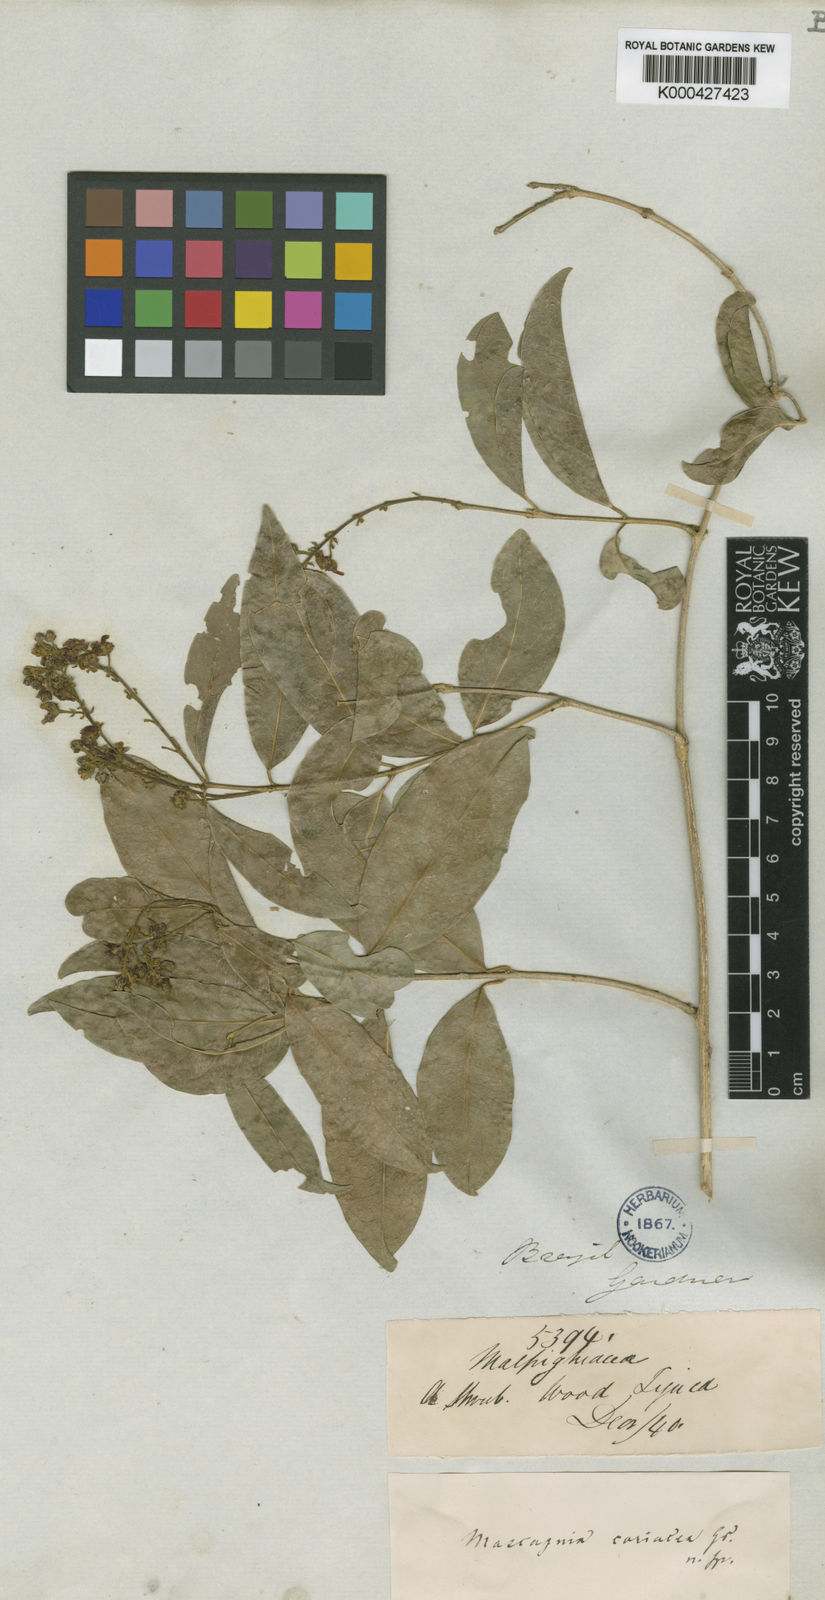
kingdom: Plantae
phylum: Tracheophyta
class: Magnoliopsida
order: Malpighiales
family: Malpighiaceae
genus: Amorimia
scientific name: Amorimia coriacea
